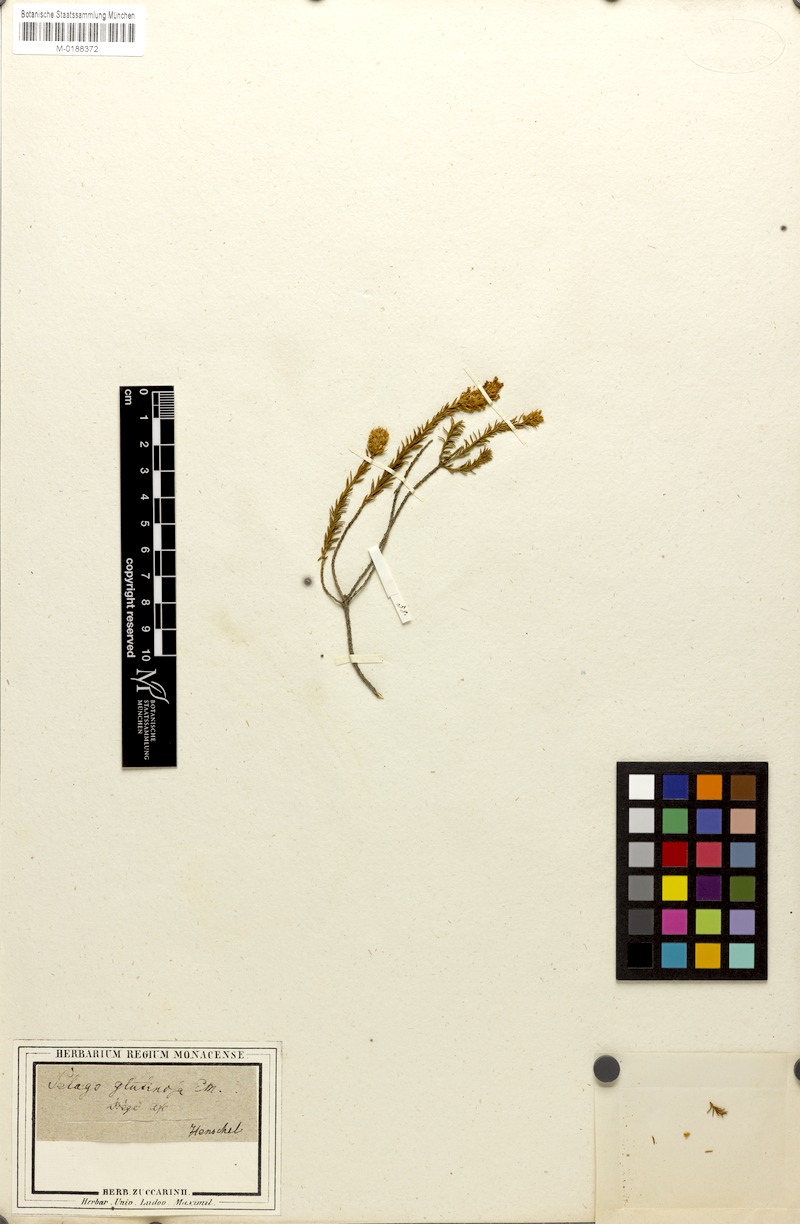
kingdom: Plantae
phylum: Tracheophyta
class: Magnoliopsida
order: Lamiales
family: Scrophulariaceae
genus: Selago
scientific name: Selago glutinosa
